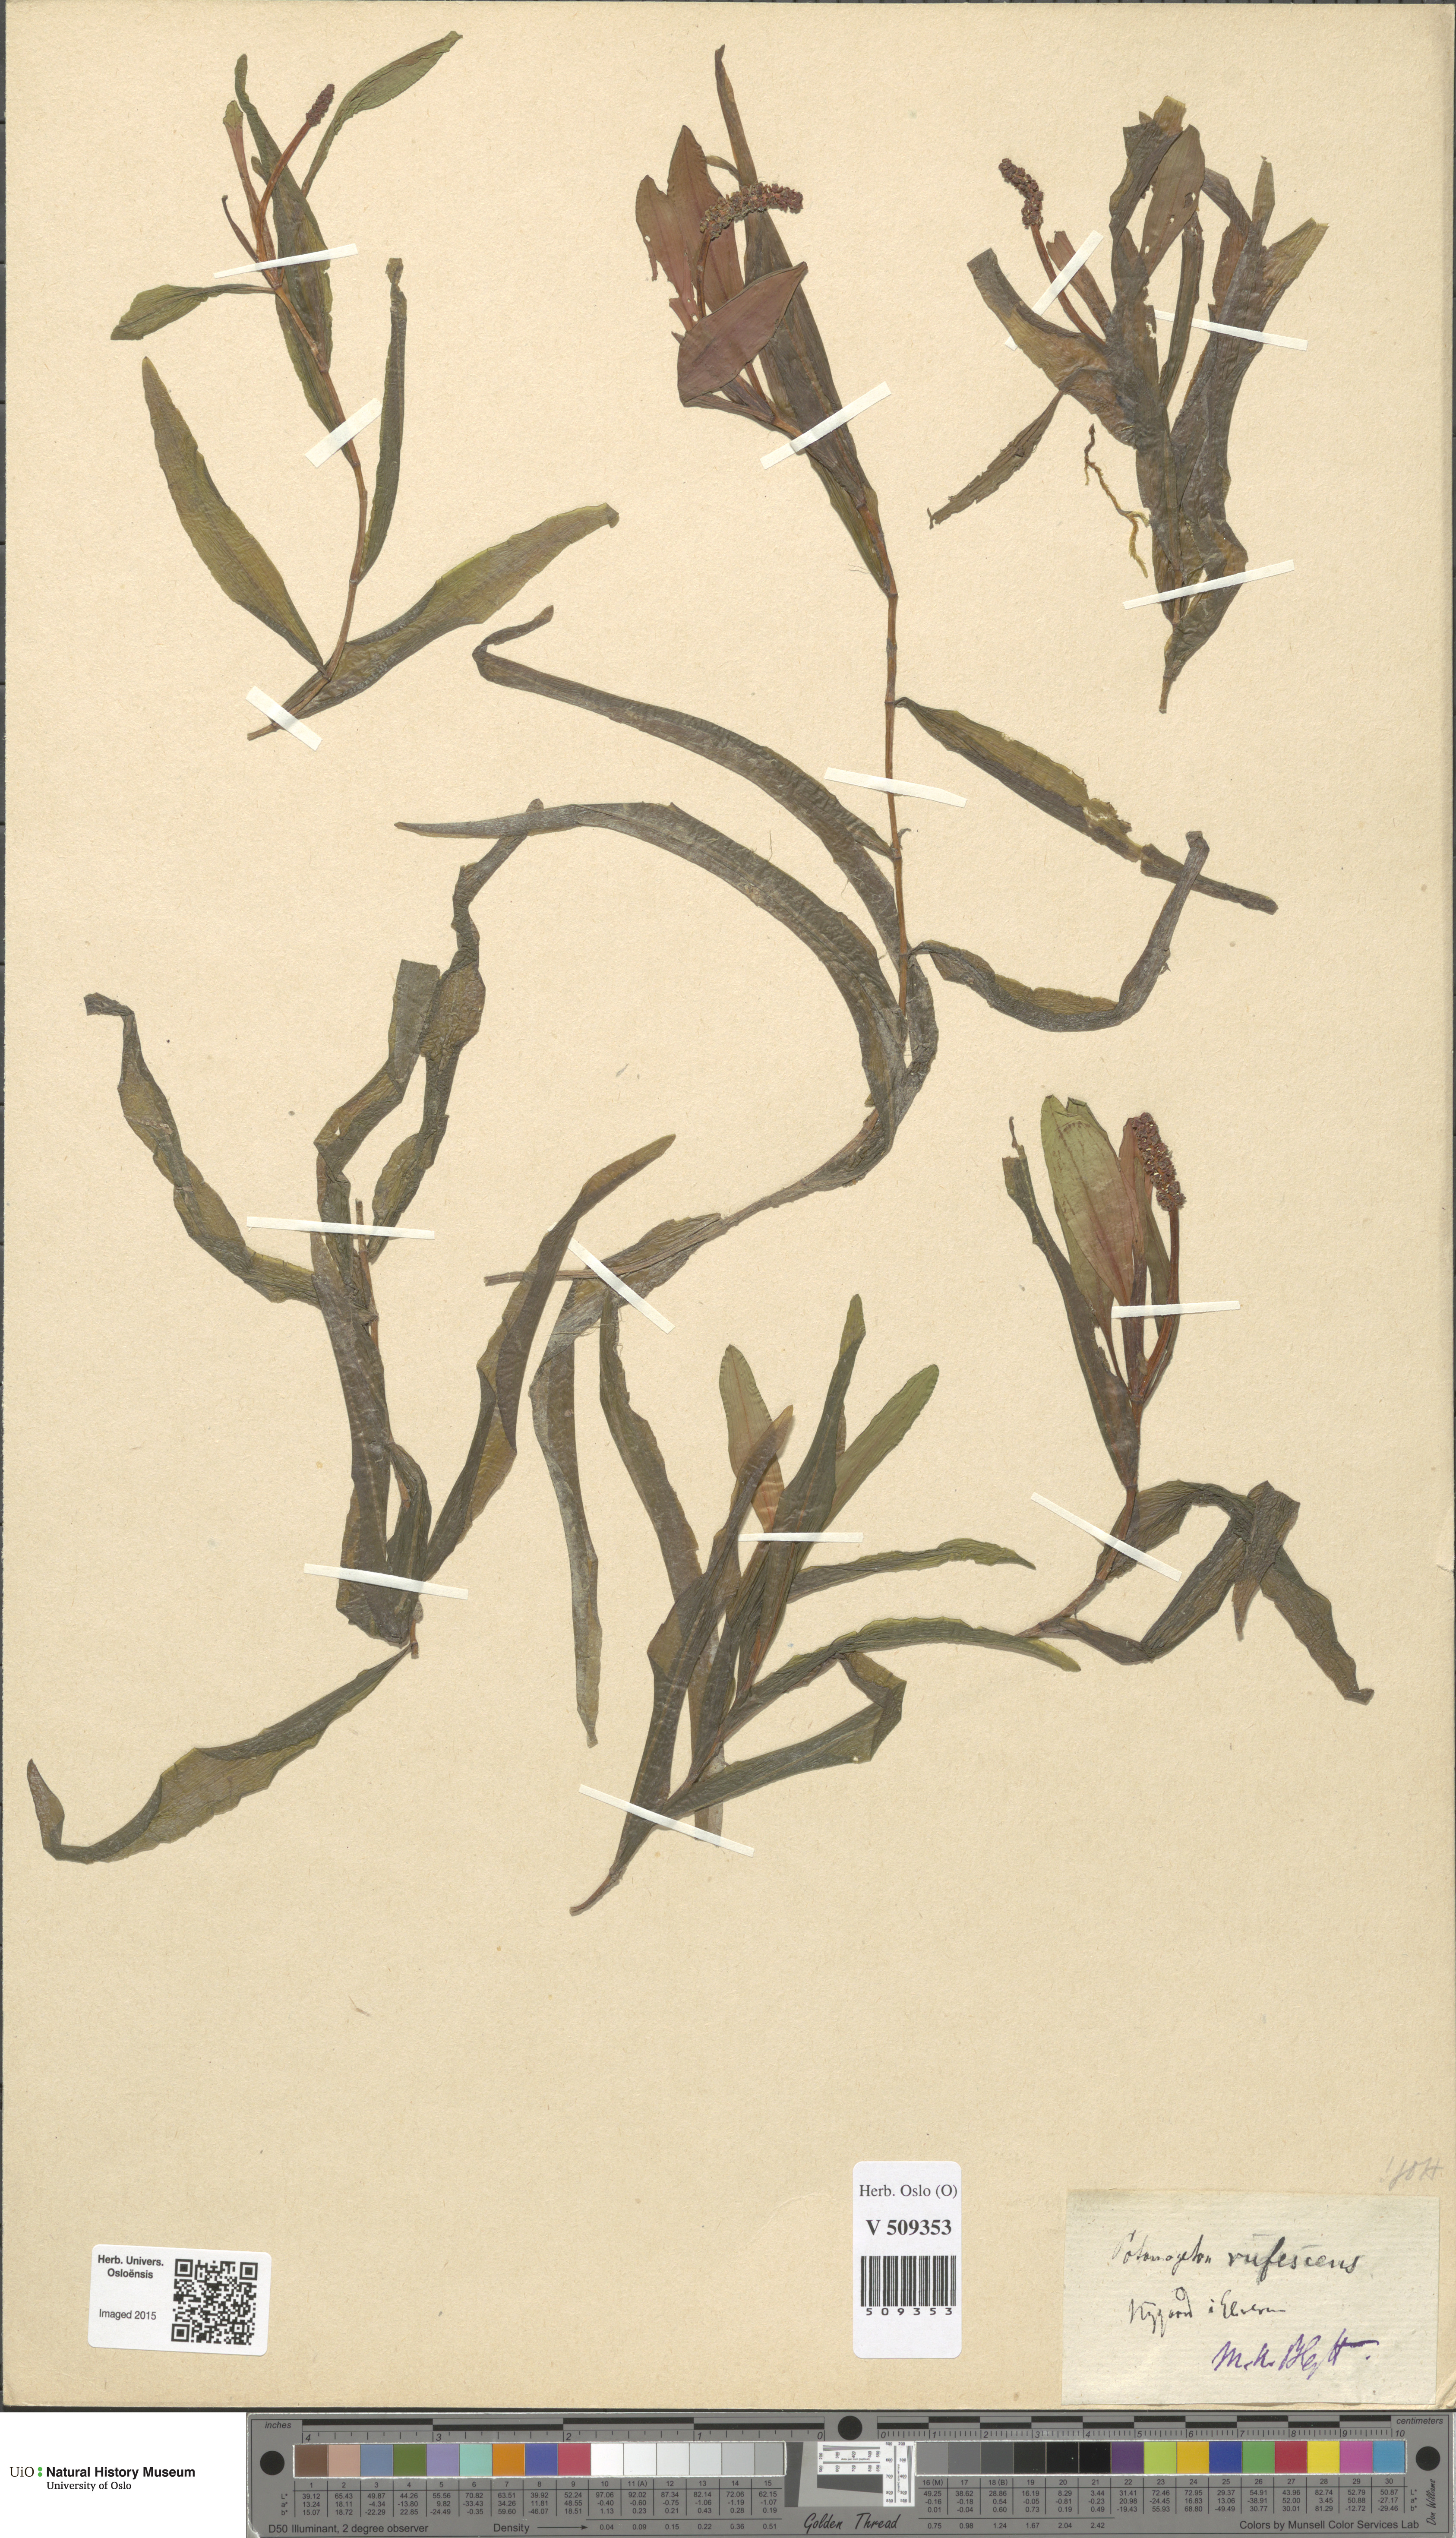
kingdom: Plantae
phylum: Tracheophyta
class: Liliopsida
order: Alismatales
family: Potamogetonaceae
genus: Potamogeton
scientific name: Potamogeton alpinus
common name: Red pondweed
